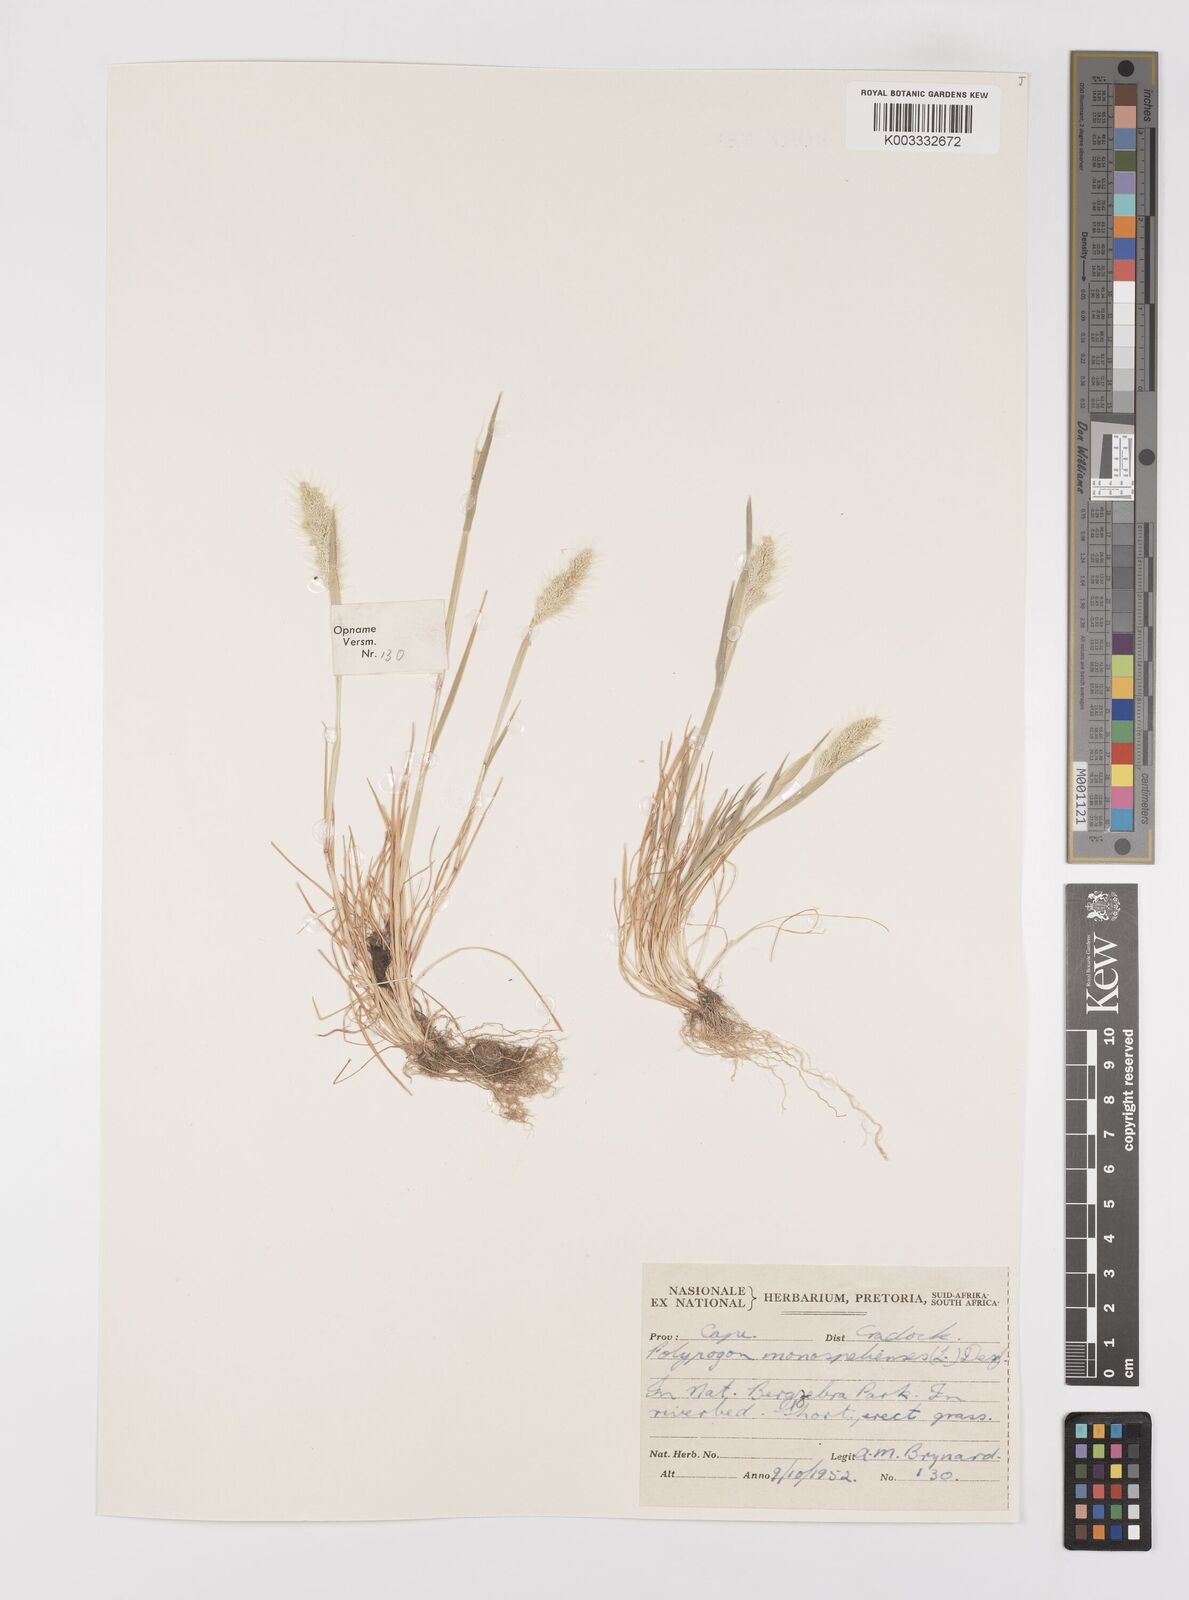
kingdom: Plantae
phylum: Tracheophyta
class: Liliopsida
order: Poales
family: Poaceae
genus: Polypogon
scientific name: Polypogon monspeliensis
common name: Annual rabbitsfoot grass
